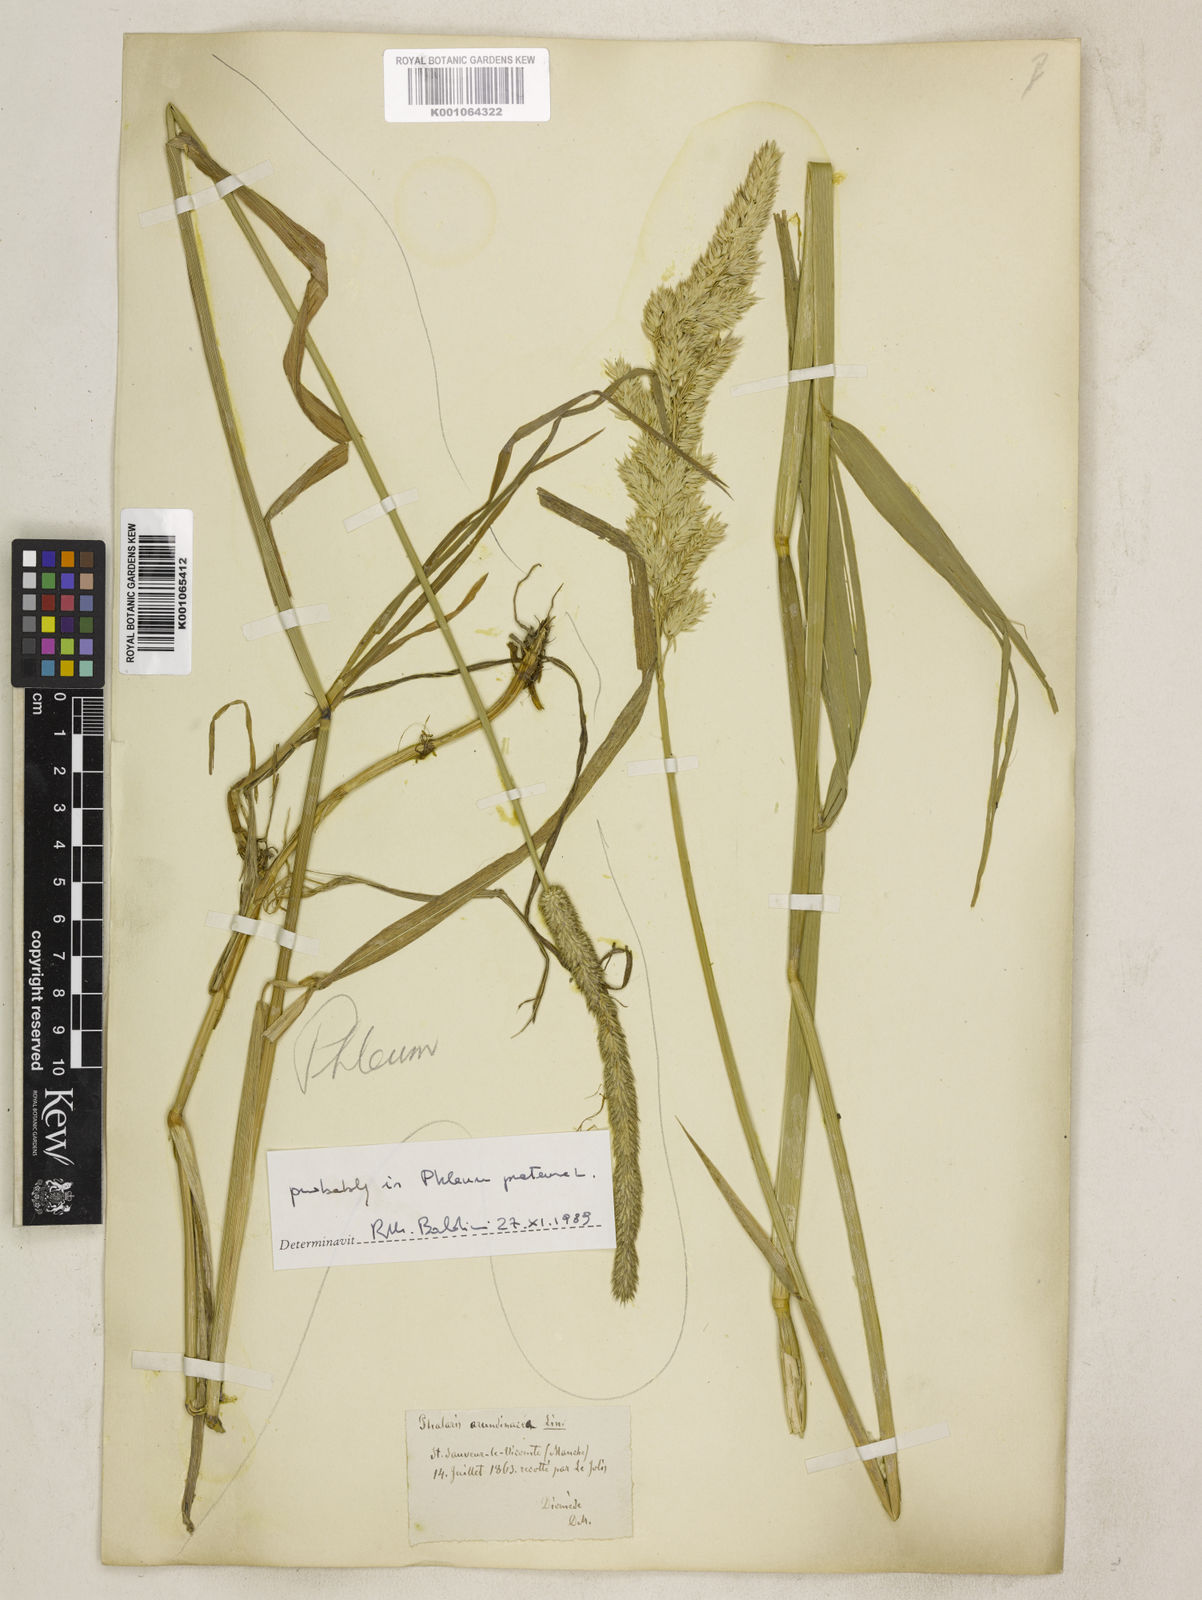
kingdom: Plantae
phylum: Tracheophyta
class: Liliopsida
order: Poales
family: Poaceae
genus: Phalaris
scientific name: Phalaris arundinacea
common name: Reed canary-grass
